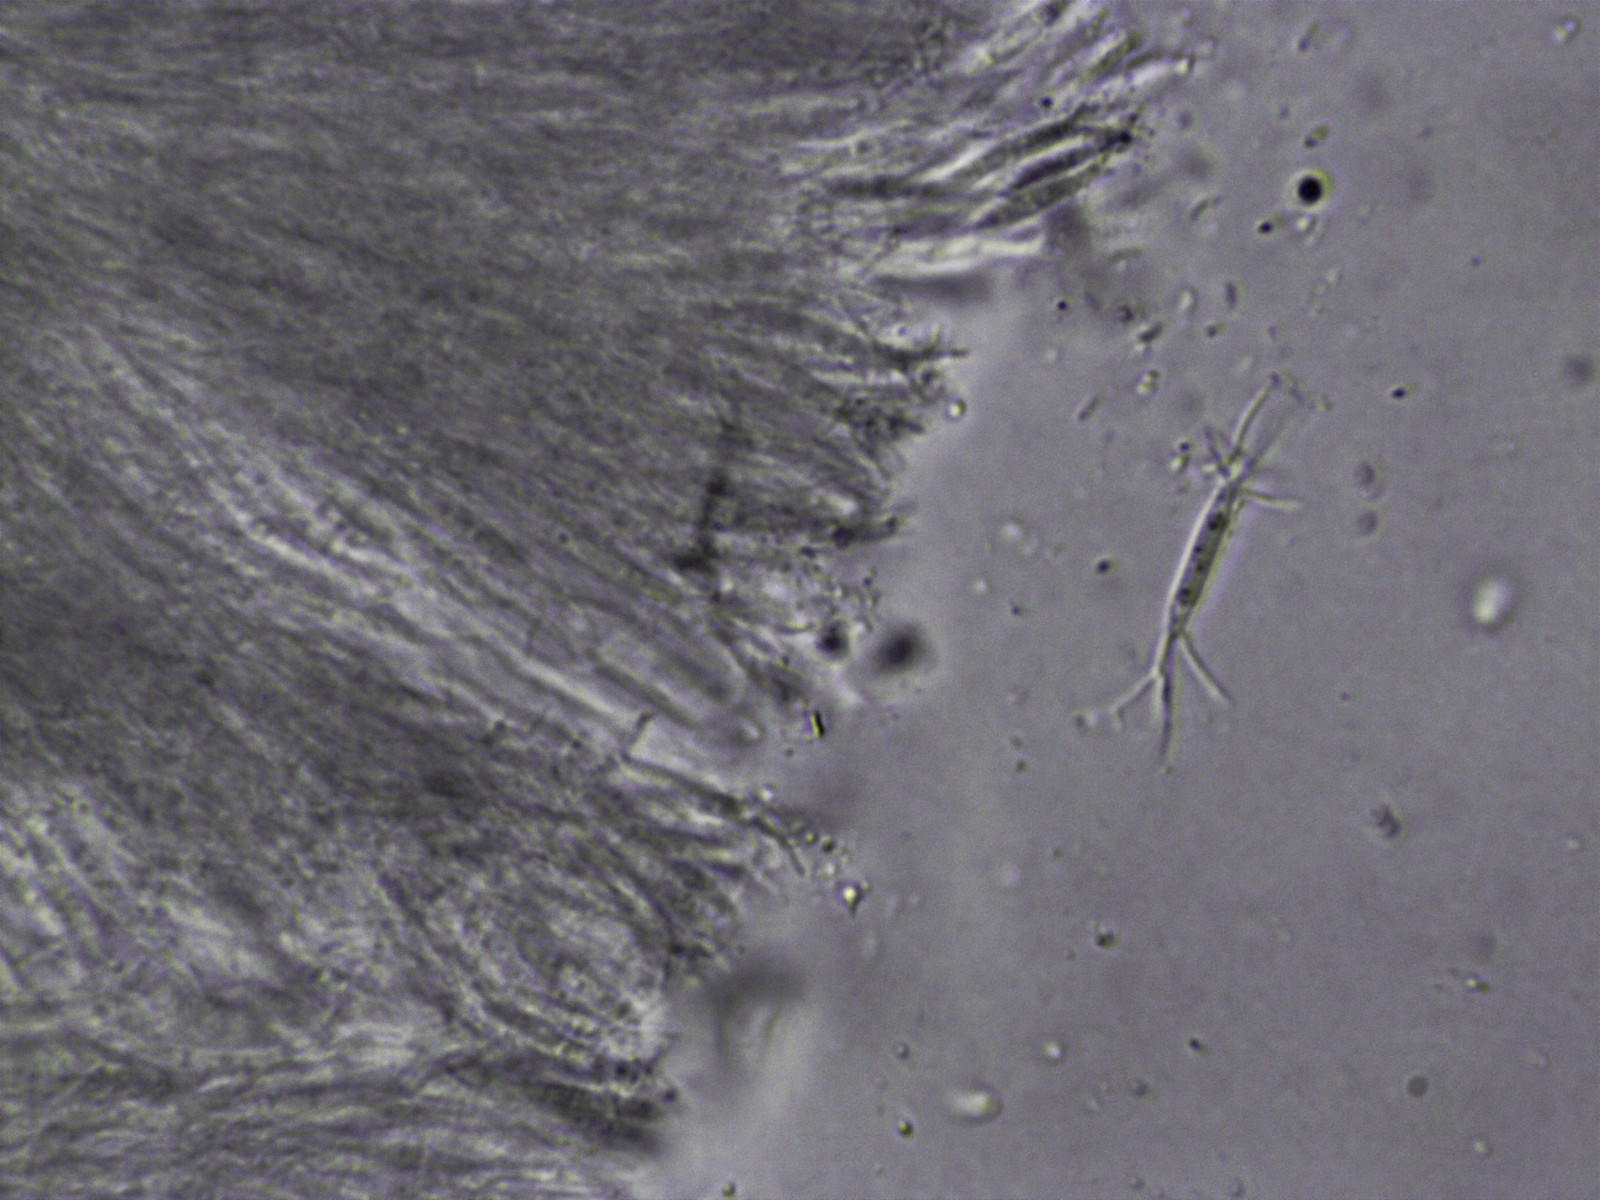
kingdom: Fungi
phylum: Ascomycota
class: Dothideomycetes
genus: Dilophospora
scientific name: Dilophospora alopecuri
